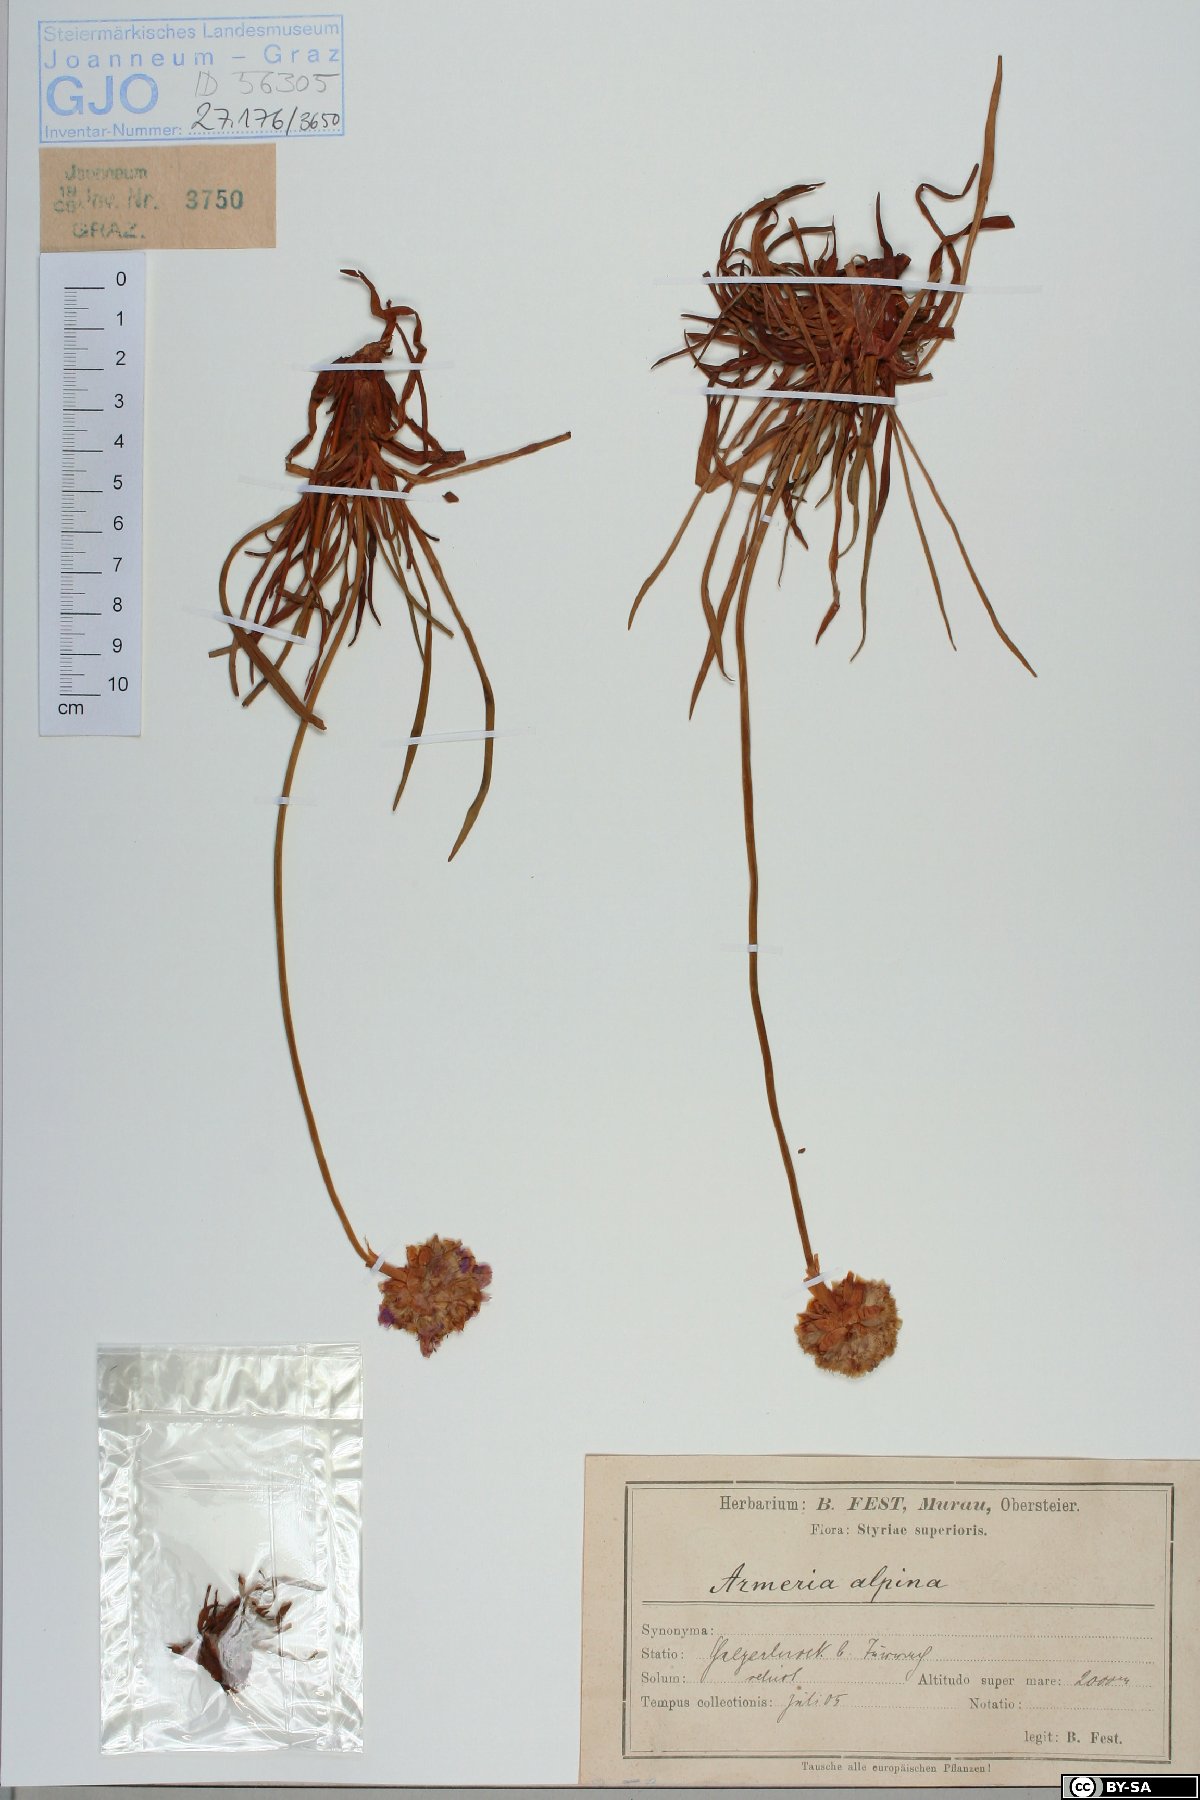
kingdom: Plantae
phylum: Tracheophyta
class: Magnoliopsida
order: Caryophyllales
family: Plumbaginaceae
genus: Armeria
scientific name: Armeria alpina
